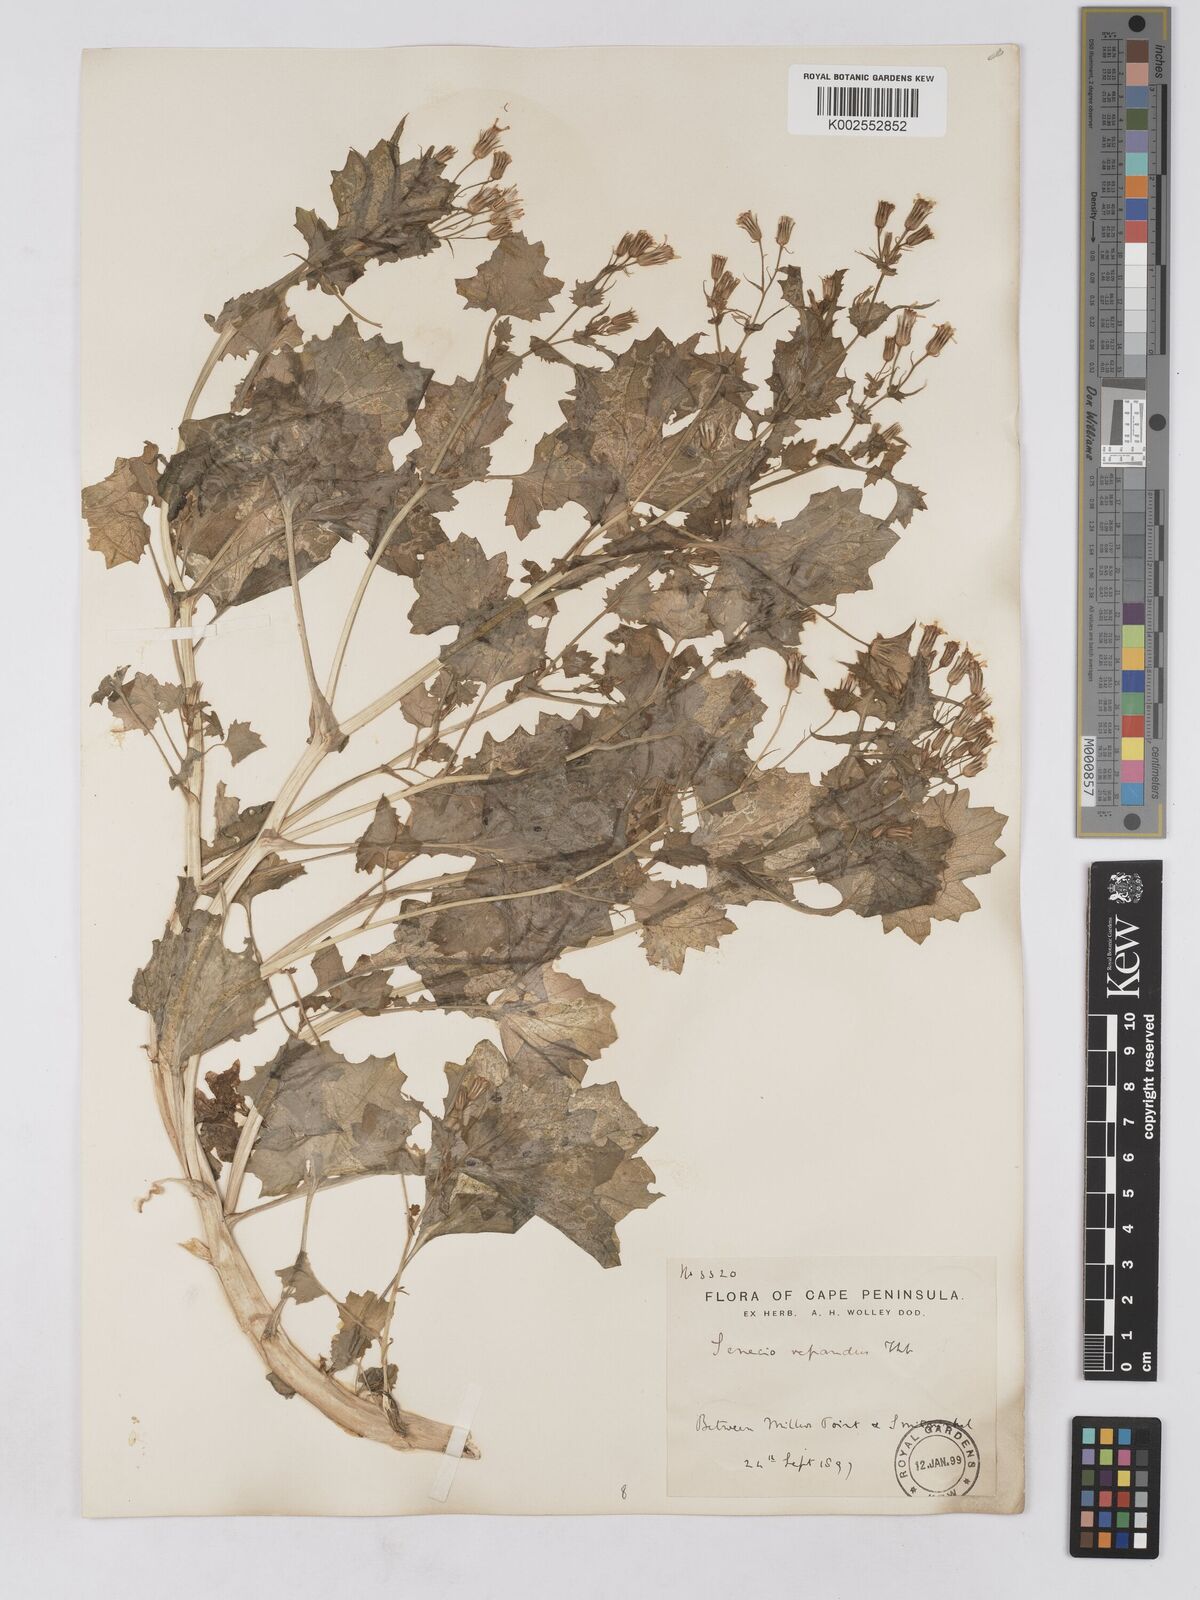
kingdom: Plantae
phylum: Tracheophyta
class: Magnoliopsida
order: Asterales
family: Asteraceae
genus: Senecio
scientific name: Senecio repandus
